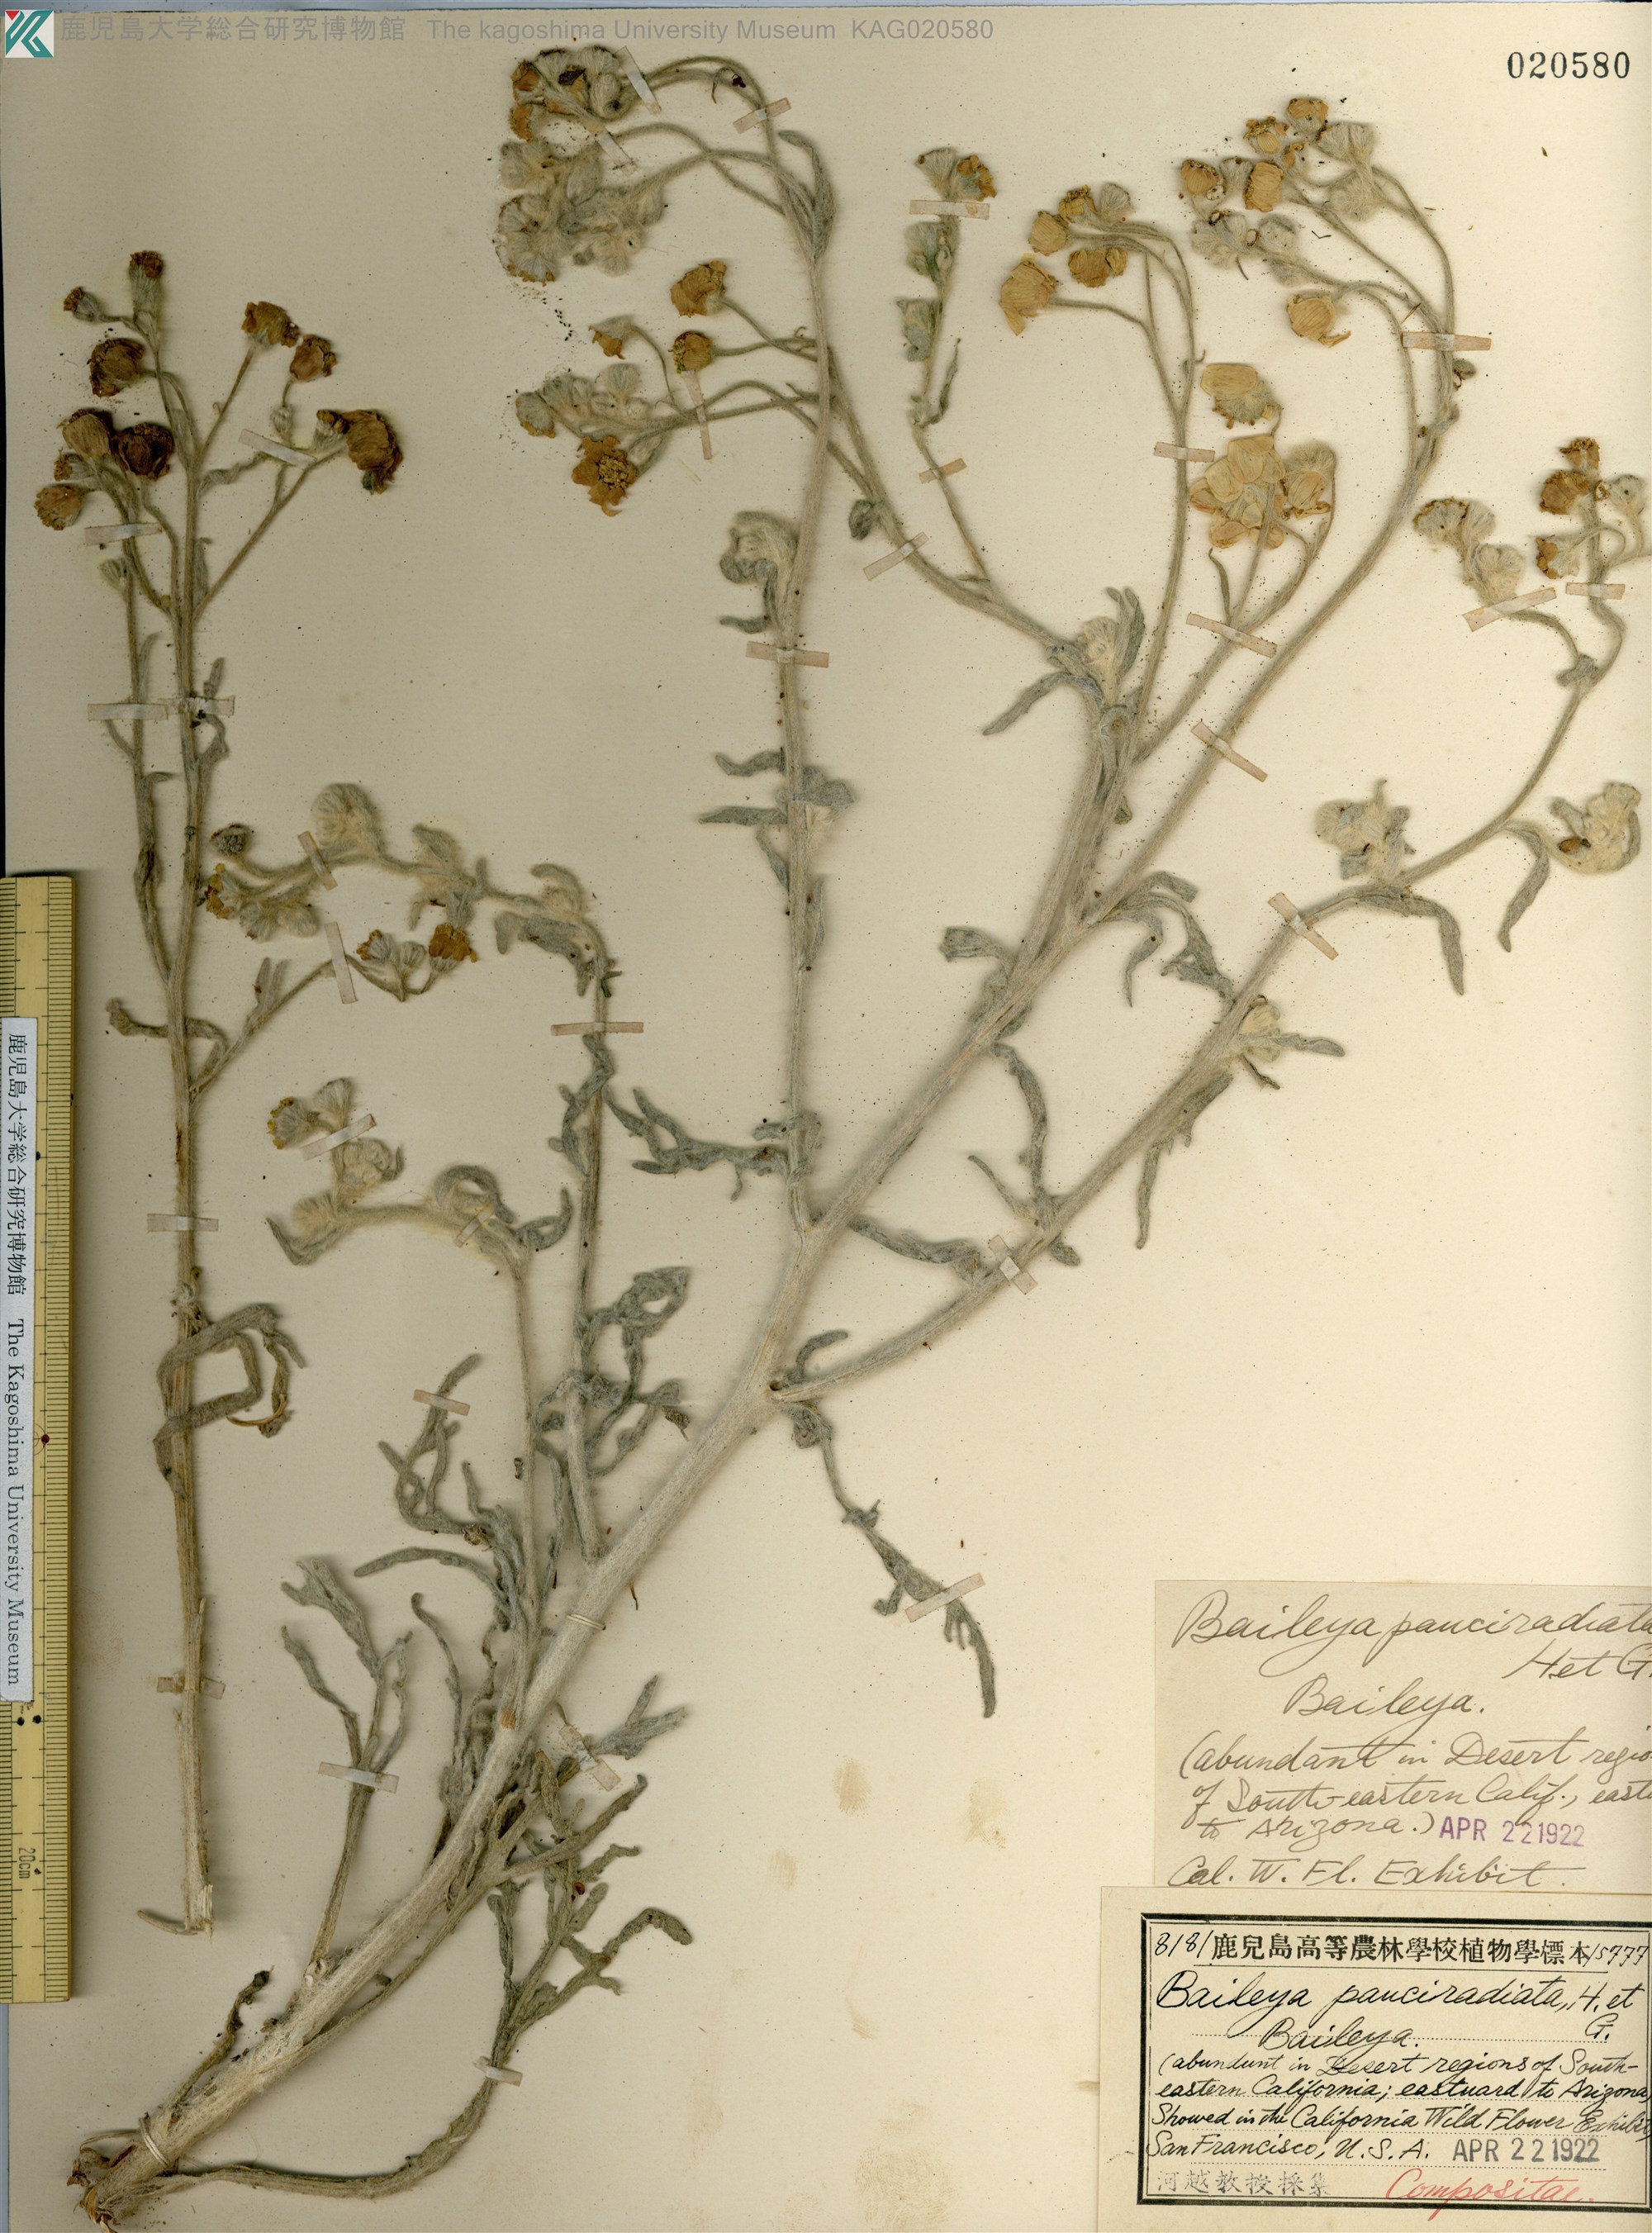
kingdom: Plantae
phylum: Tracheophyta
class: Magnoliopsida
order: Asterales
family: Asteraceae
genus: Baileya
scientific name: Baileya pauciradiata
